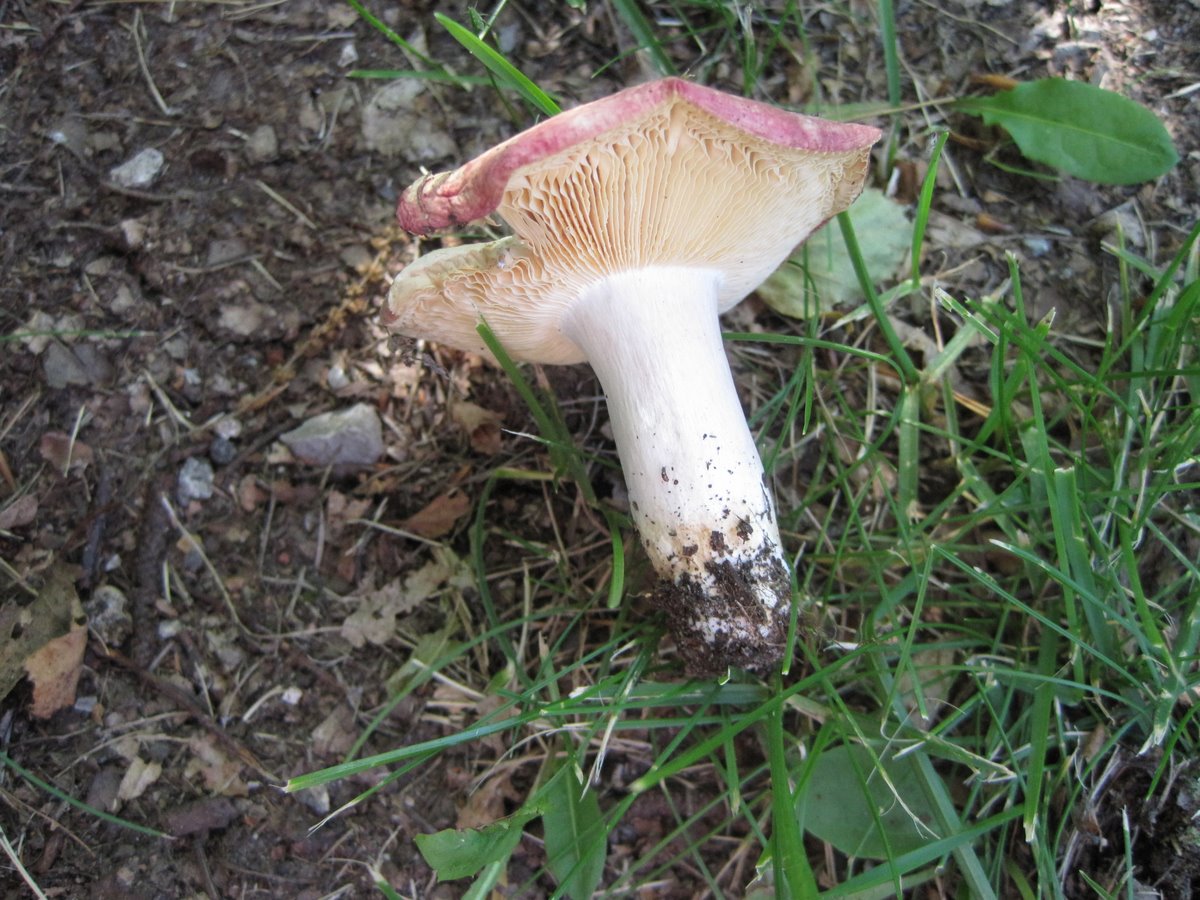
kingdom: Fungi
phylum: Basidiomycota
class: Agaricomycetes
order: Russulales
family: Russulaceae
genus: Russula
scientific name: Russula depallens
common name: falmende skørhat
